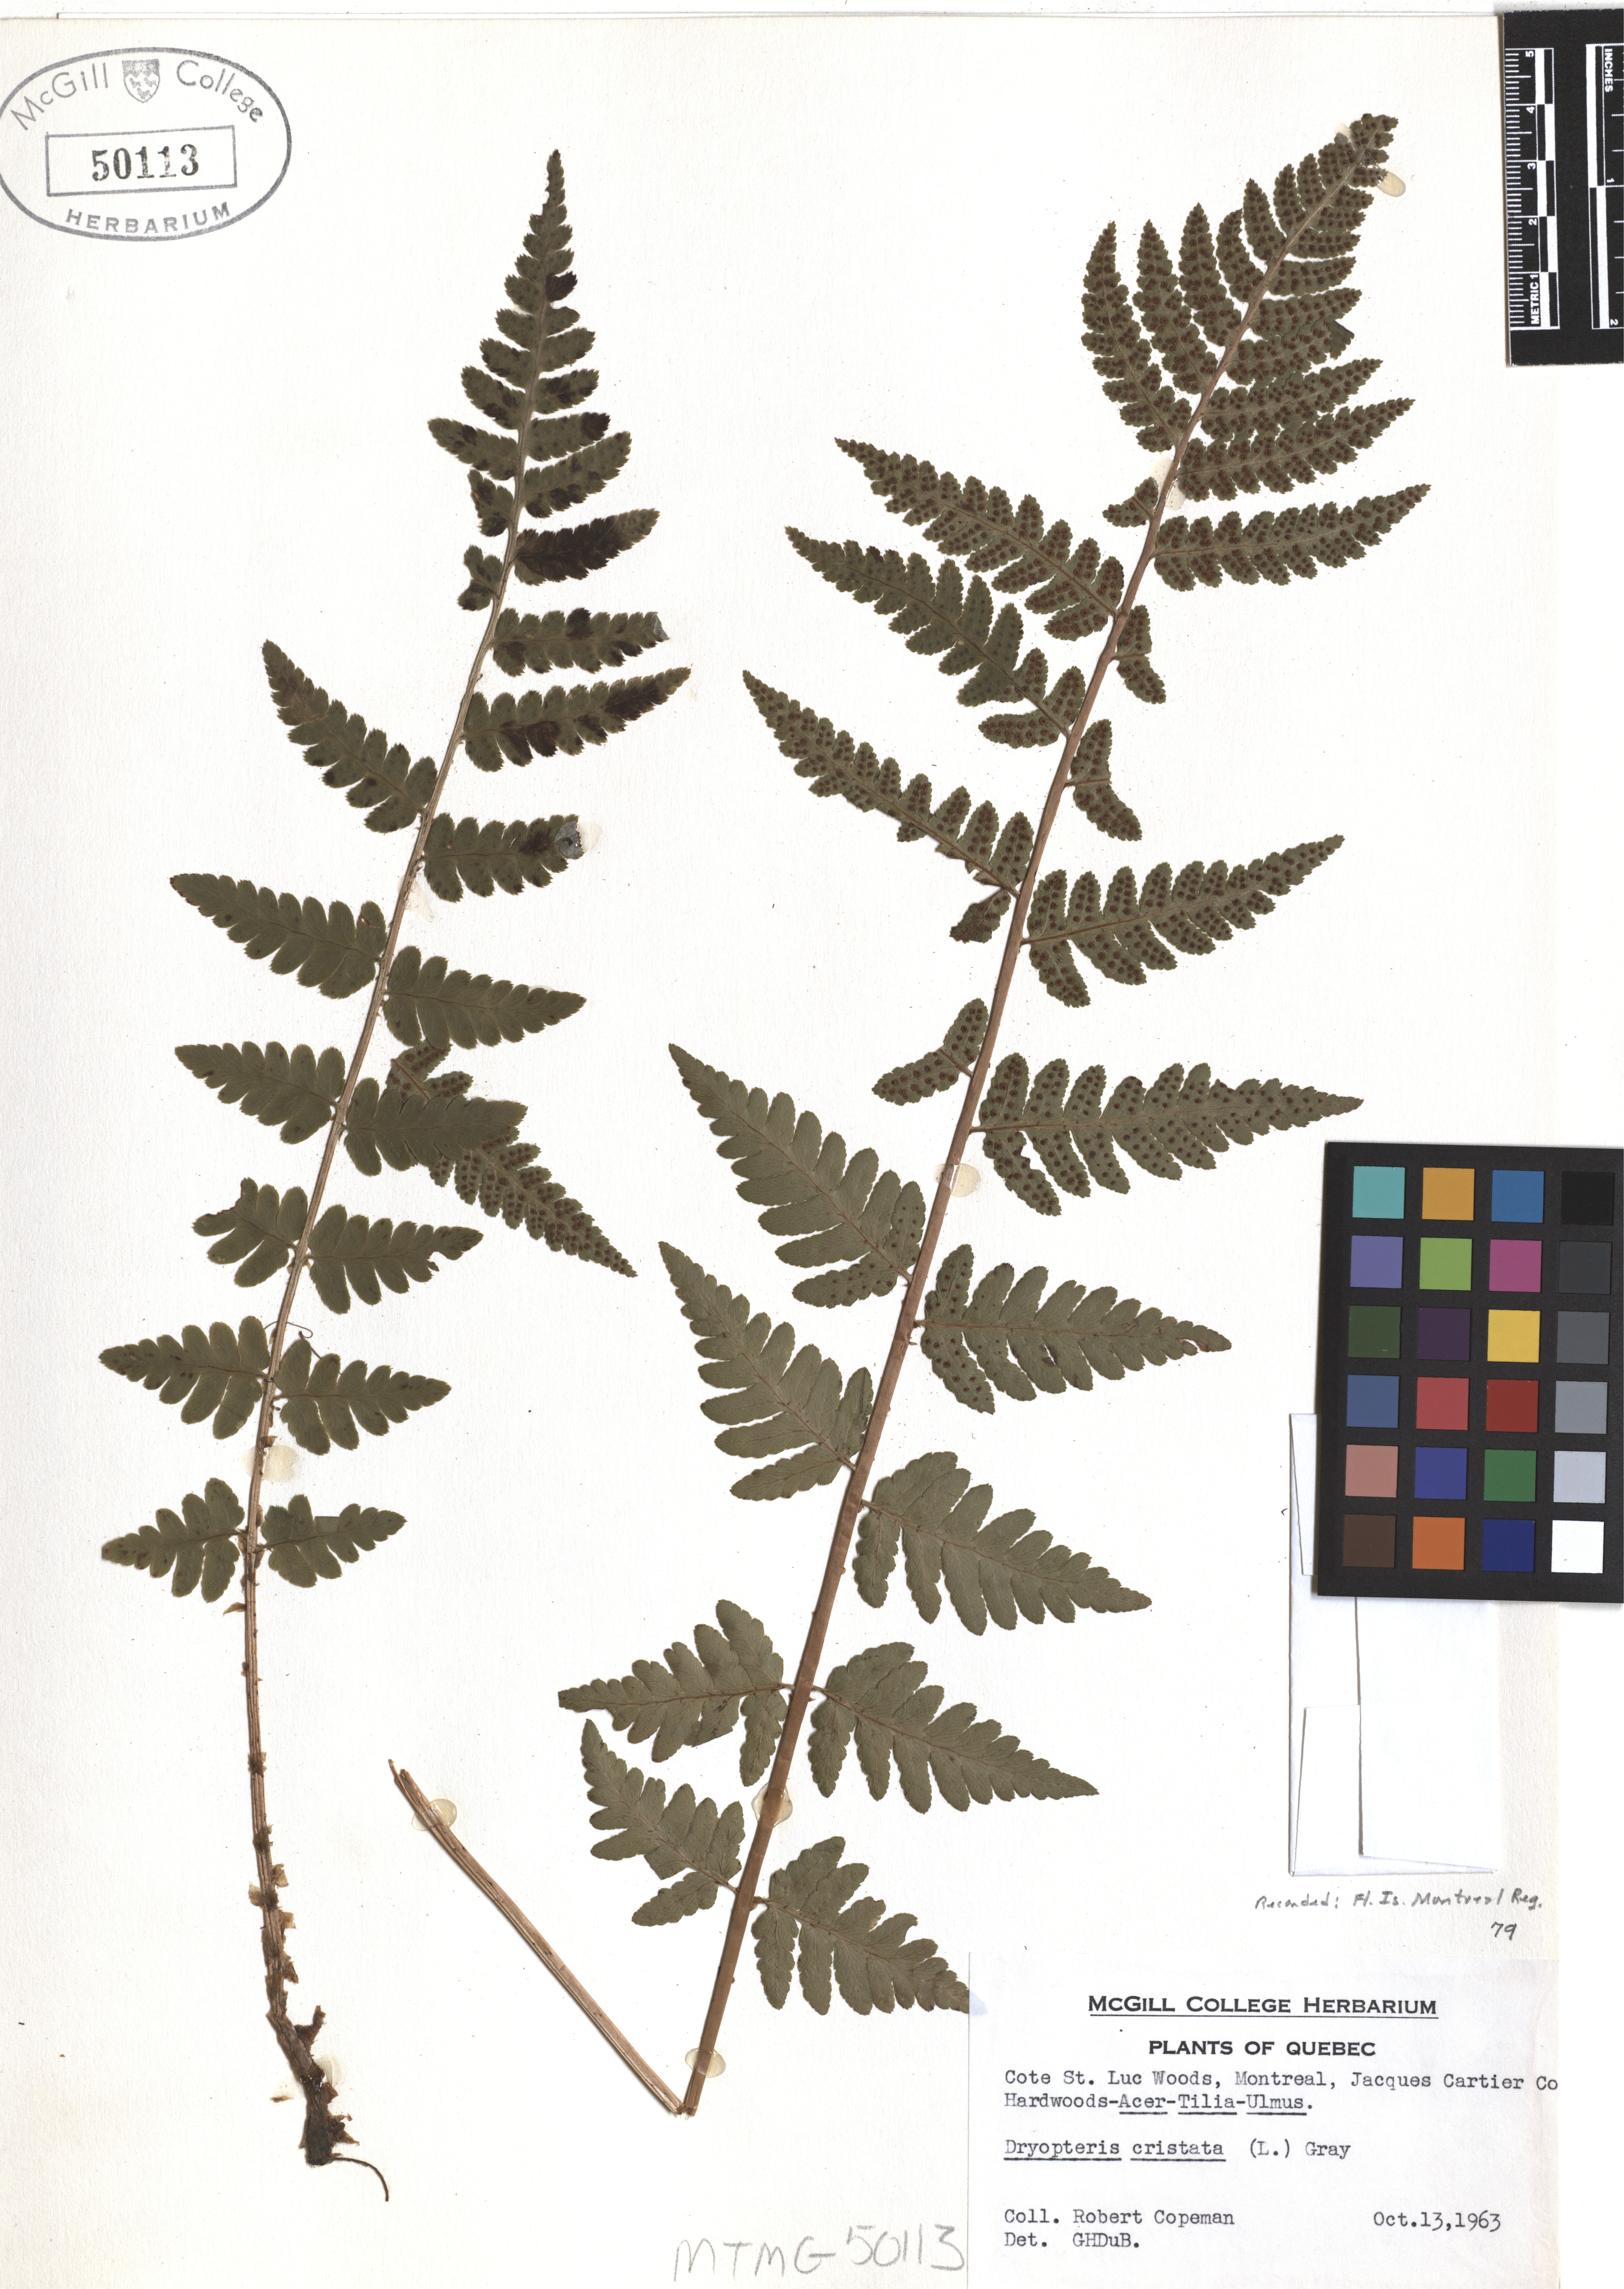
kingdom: Plantae
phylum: Tracheophyta
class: Polypodiopsida
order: Polypodiales
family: Dryopteridaceae
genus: Dryopteris
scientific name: Dryopteris cristata
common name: Crested wood fern
